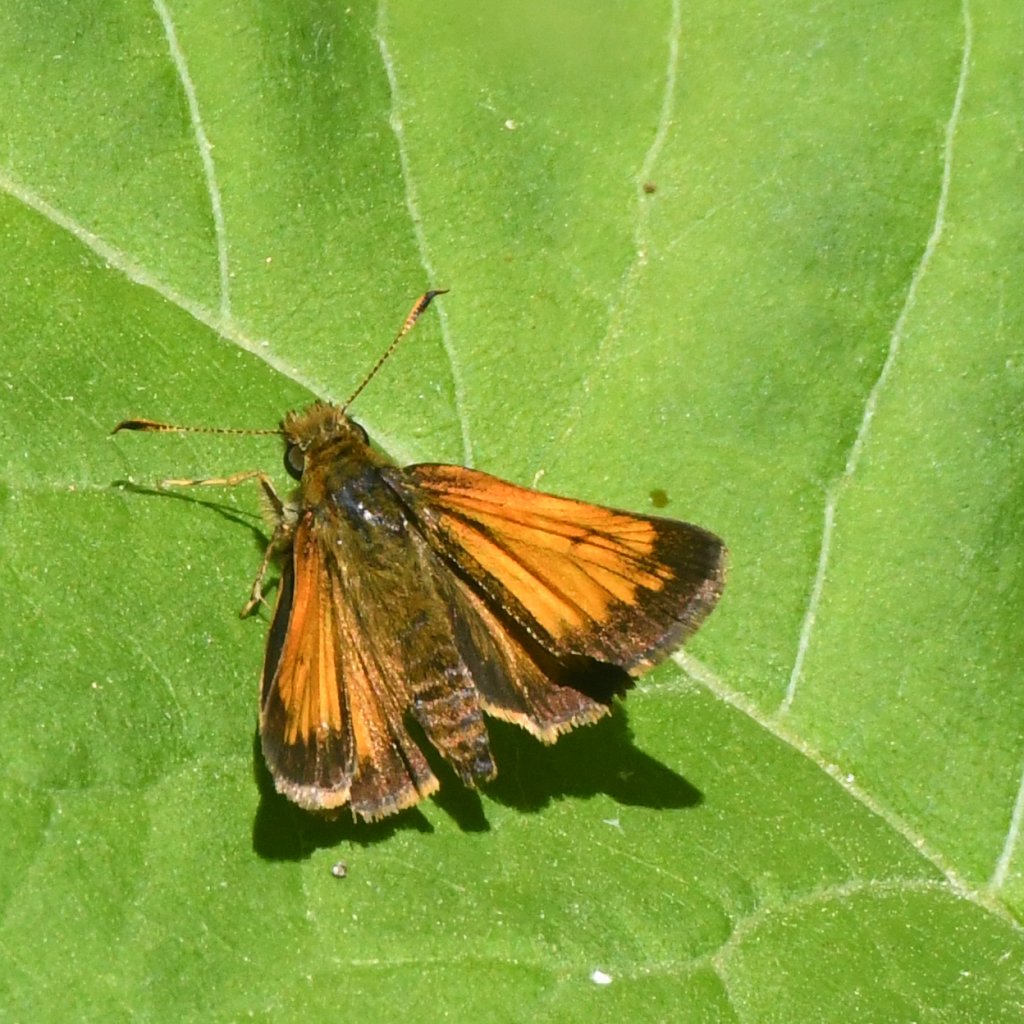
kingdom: Animalia
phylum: Arthropoda
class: Insecta
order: Lepidoptera
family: Hesperiidae
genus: Lon
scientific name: Lon hobomok
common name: Hobomok Skipper
